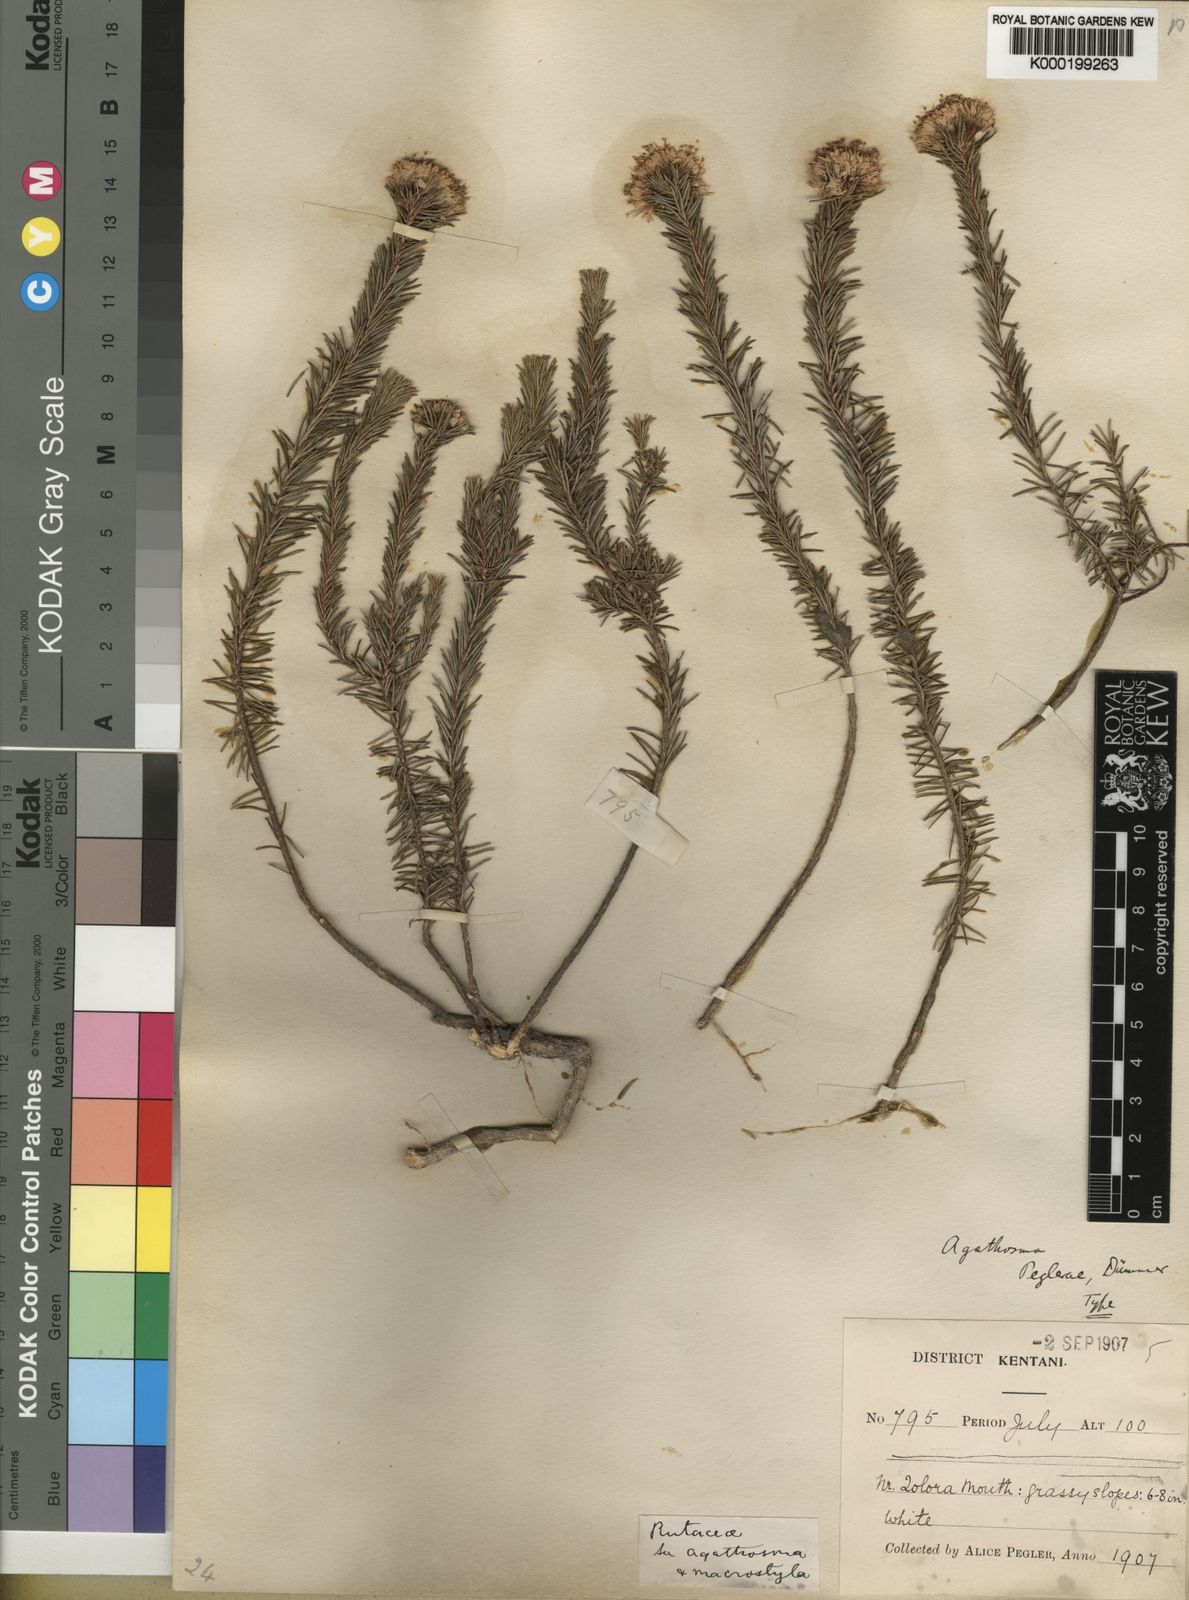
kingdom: Plantae
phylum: Tracheophyta
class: Magnoliopsida
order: Sapindales
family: Rutaceae
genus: Agathosma
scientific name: Agathosma peglerae
